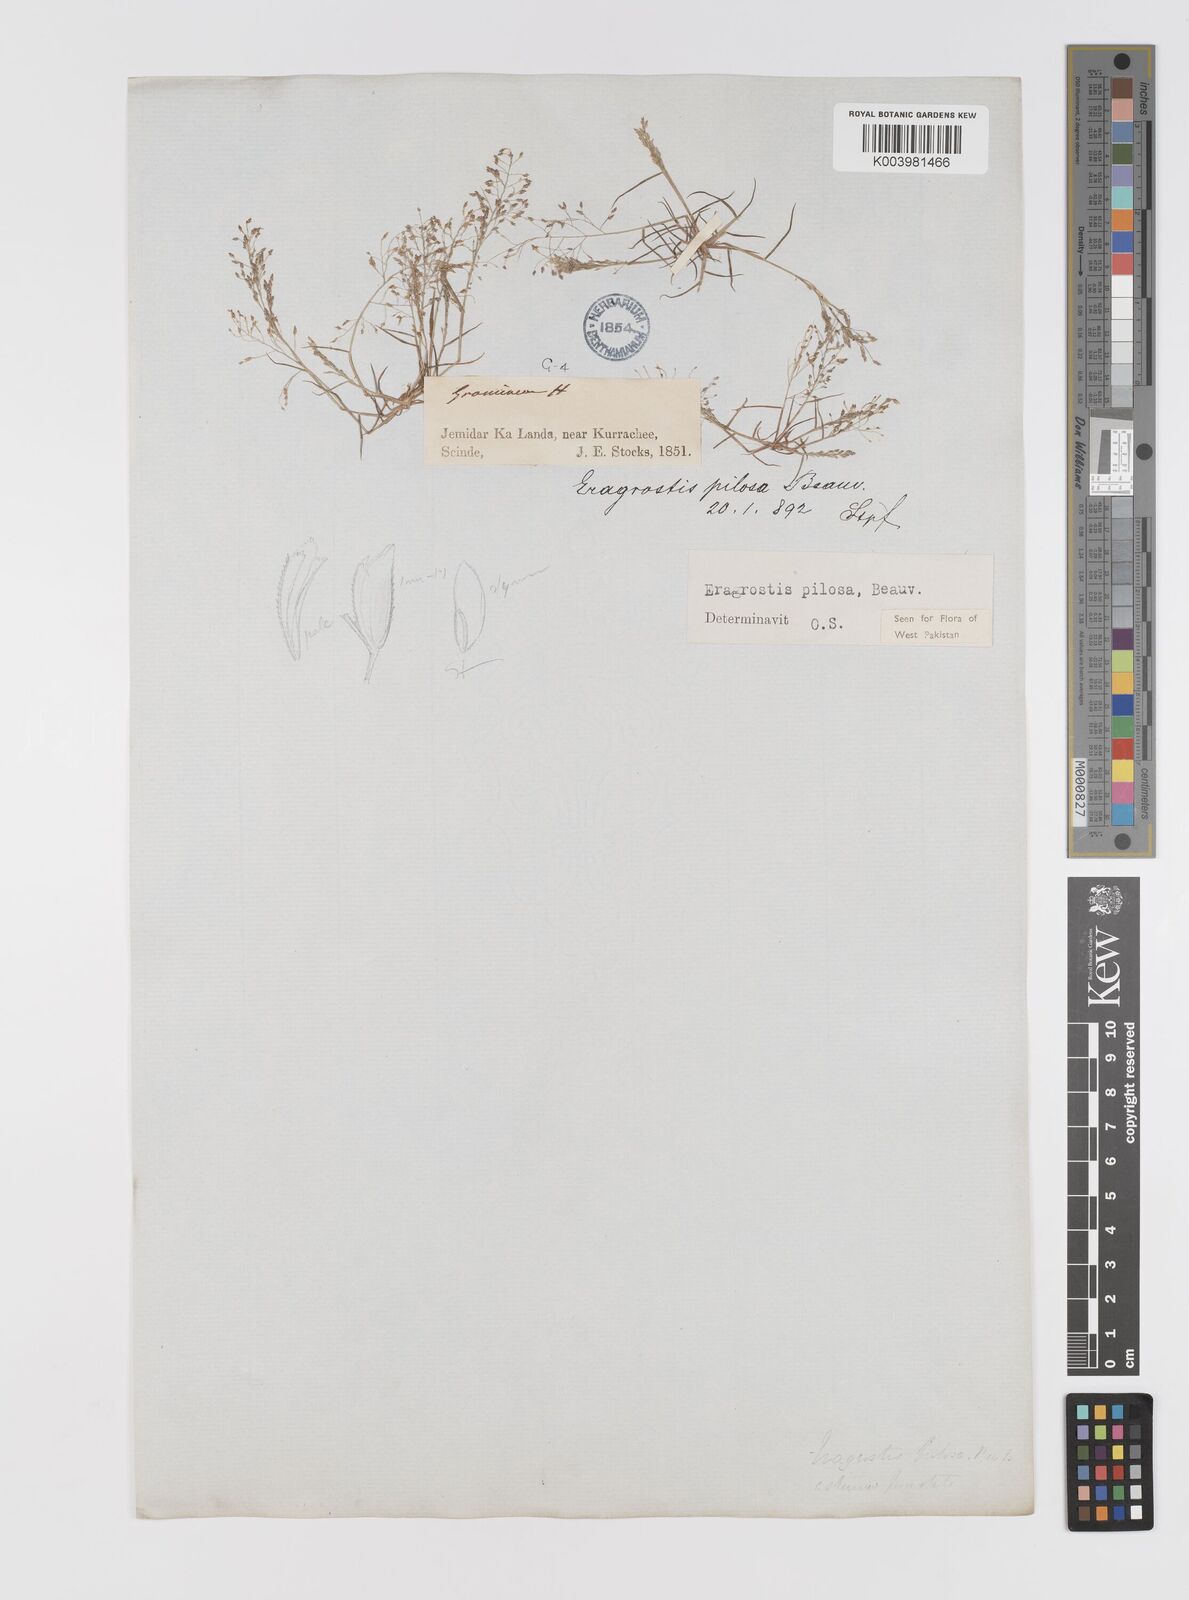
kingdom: Plantae
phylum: Tracheophyta
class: Liliopsida
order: Poales
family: Poaceae
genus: Eragrostis
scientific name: Eragrostis pilosa
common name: Indian lovegrass
